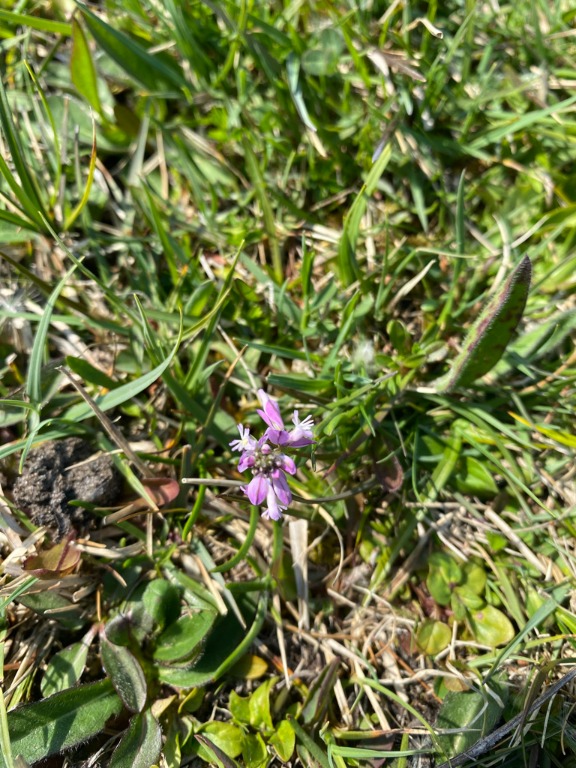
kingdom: Plantae
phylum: Tracheophyta
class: Magnoliopsida
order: Fabales
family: Polygalaceae
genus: Polygala
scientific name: Polygala vulgaris
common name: Almindelig mælkeurt
